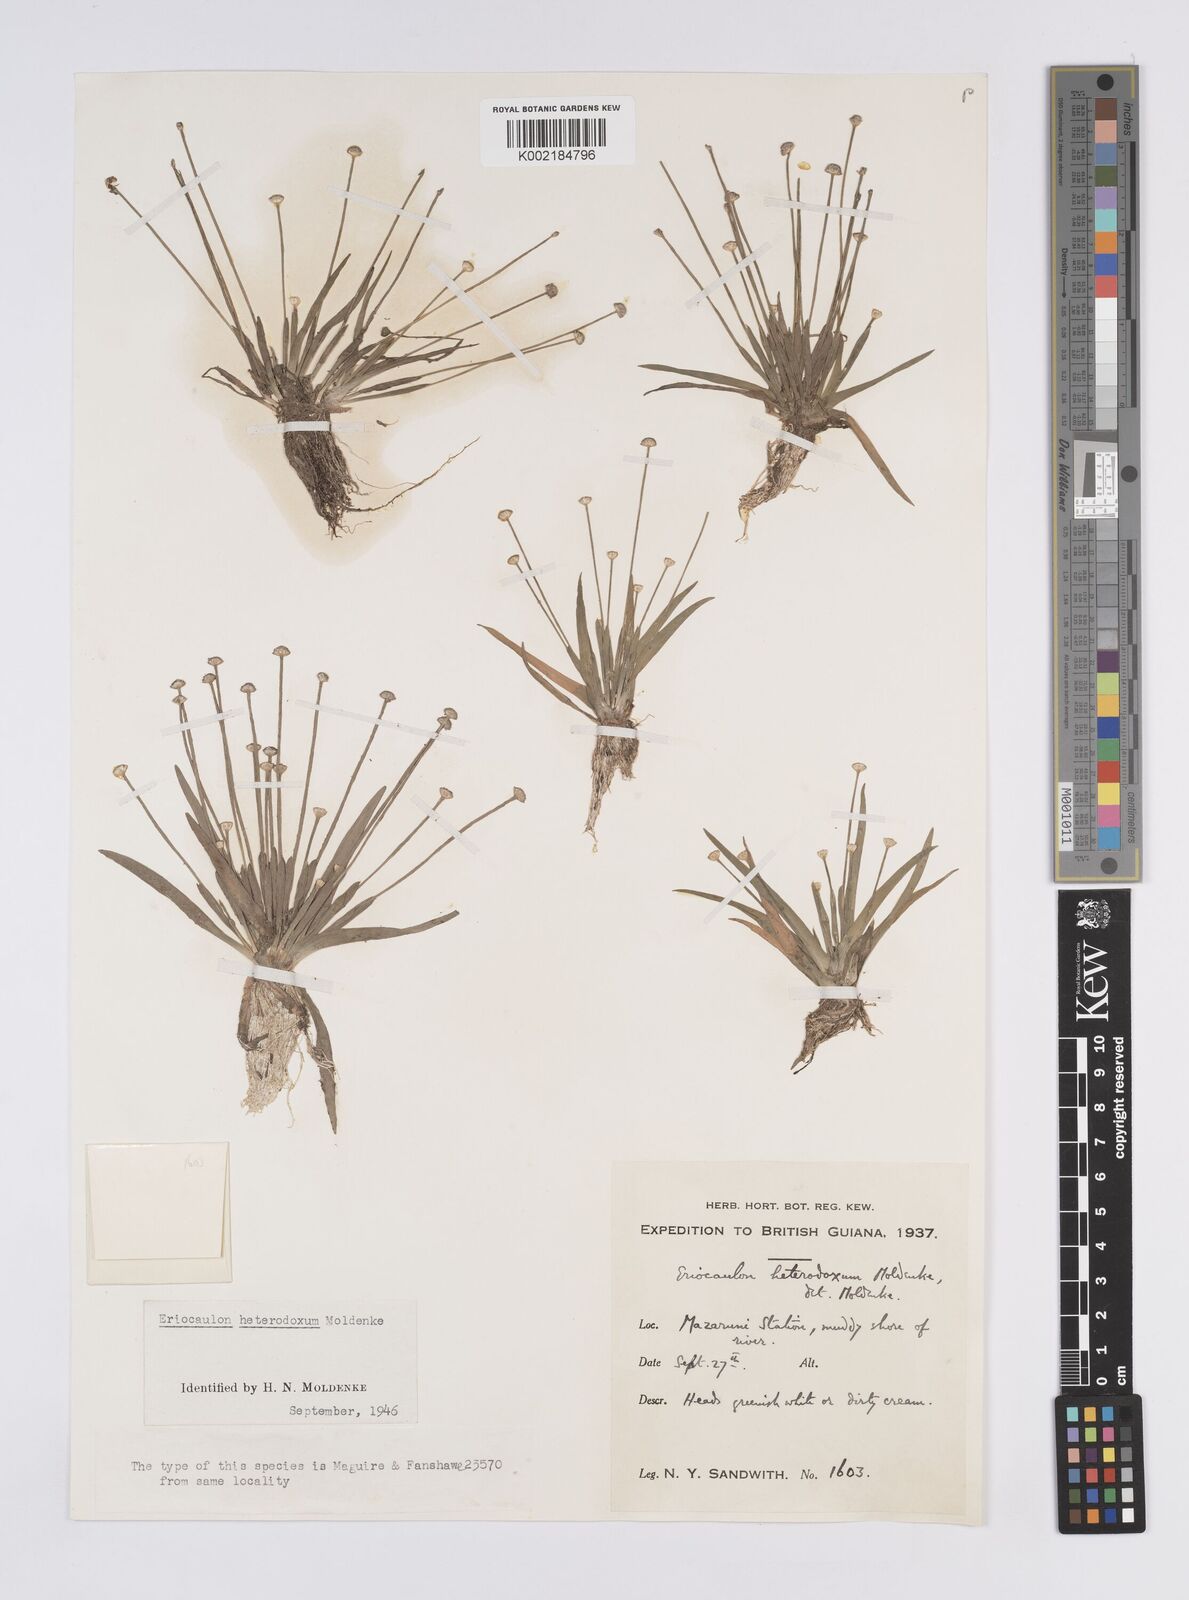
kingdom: Plantae
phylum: Tracheophyta
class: Liliopsida
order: Poales
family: Eriocaulaceae
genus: Eriocaulon
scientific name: Eriocaulon heterodoxum
